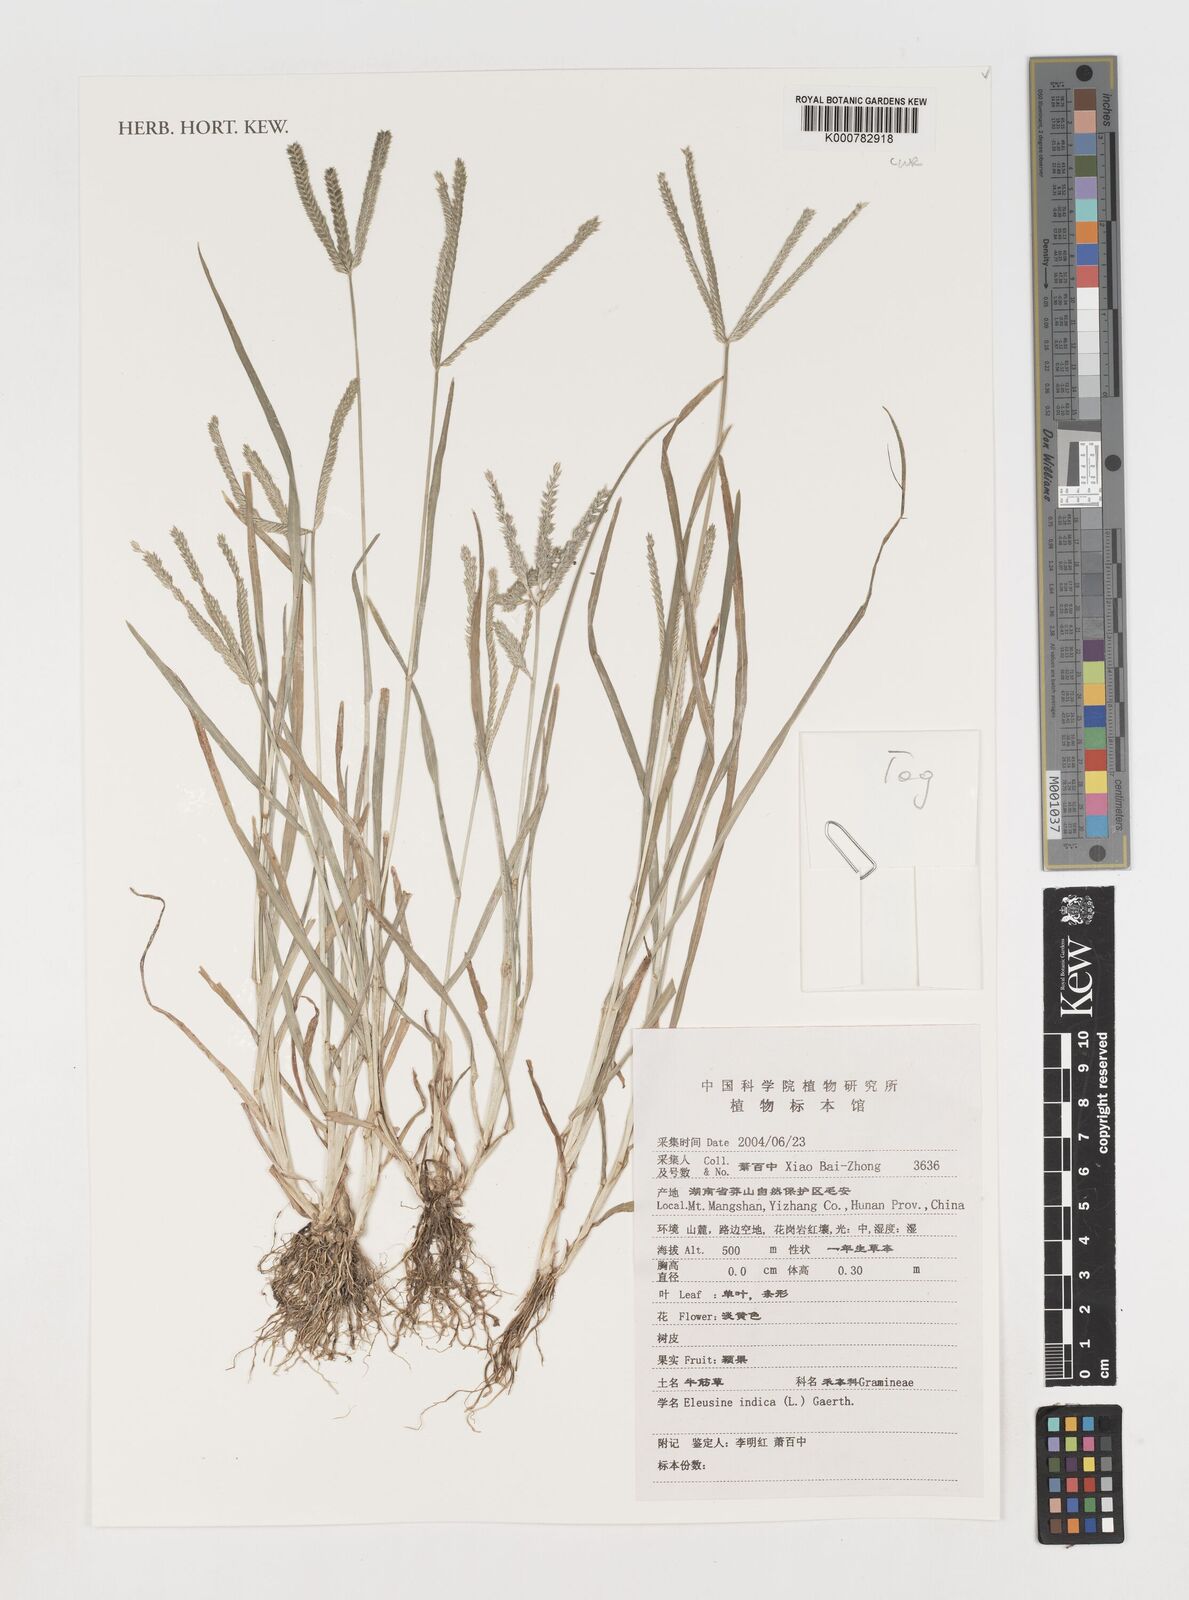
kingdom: Plantae
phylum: Tracheophyta
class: Liliopsida
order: Poales
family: Poaceae
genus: Eleusine
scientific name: Eleusine indica
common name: Yard-grass
